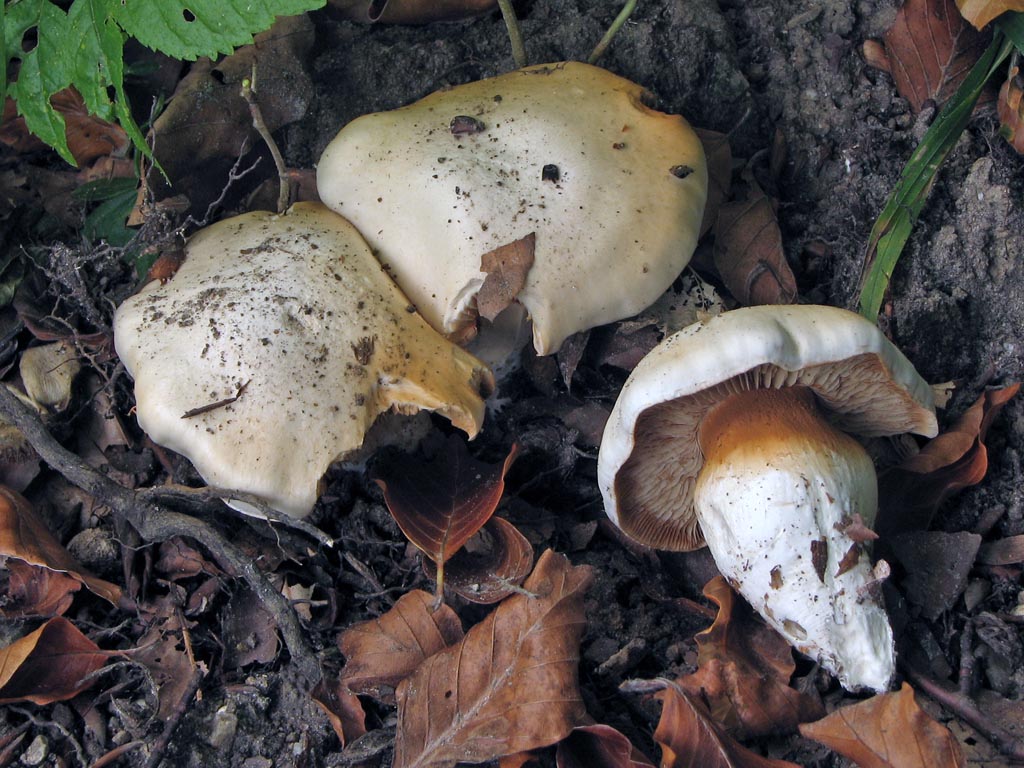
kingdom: Fungi
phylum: Basidiomycota
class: Agaricomycetes
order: Agaricales
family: Cortinariaceae
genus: Thaxterogaster
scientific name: Thaxterogaster barbatus
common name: elfenbens-slørhat
